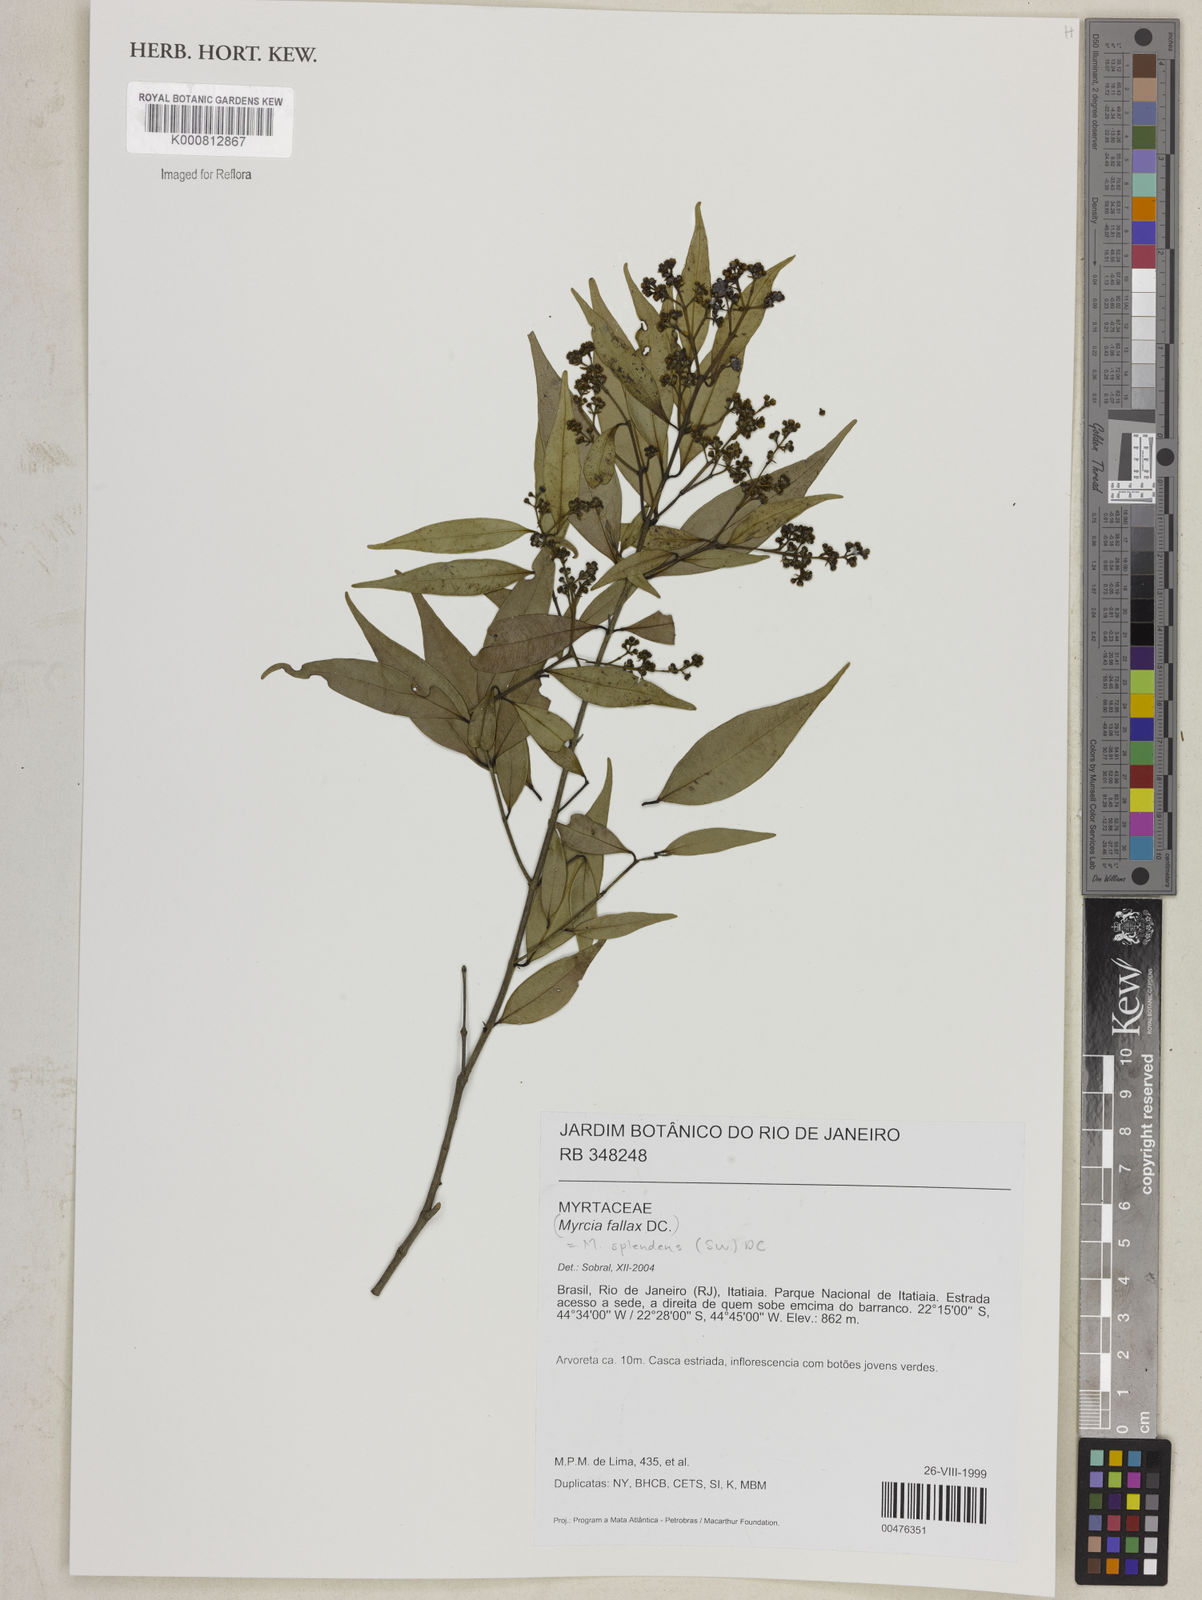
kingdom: Plantae
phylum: Tracheophyta
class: Magnoliopsida
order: Myrtales
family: Myrtaceae
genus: Myrcia
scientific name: Myrcia splendens
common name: Surinam cherry
